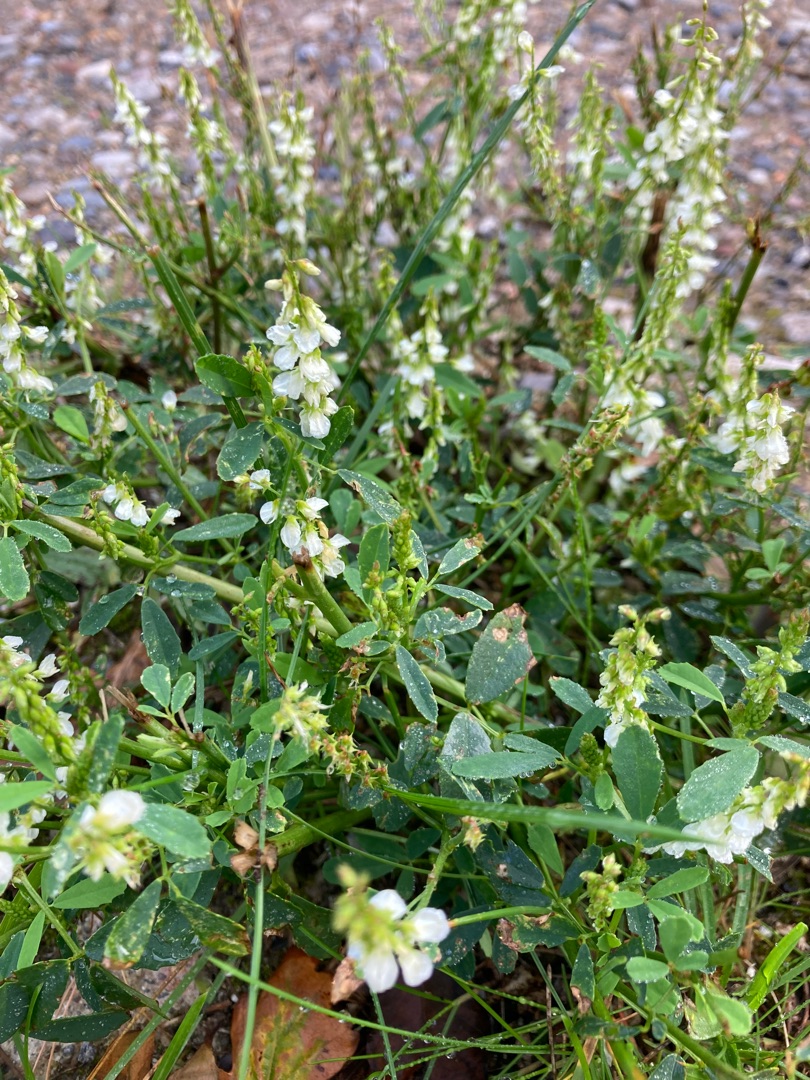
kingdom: Plantae
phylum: Tracheophyta
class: Magnoliopsida
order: Fabales
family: Fabaceae
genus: Melilotus
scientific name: Melilotus albus
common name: Hvid stenkløver
